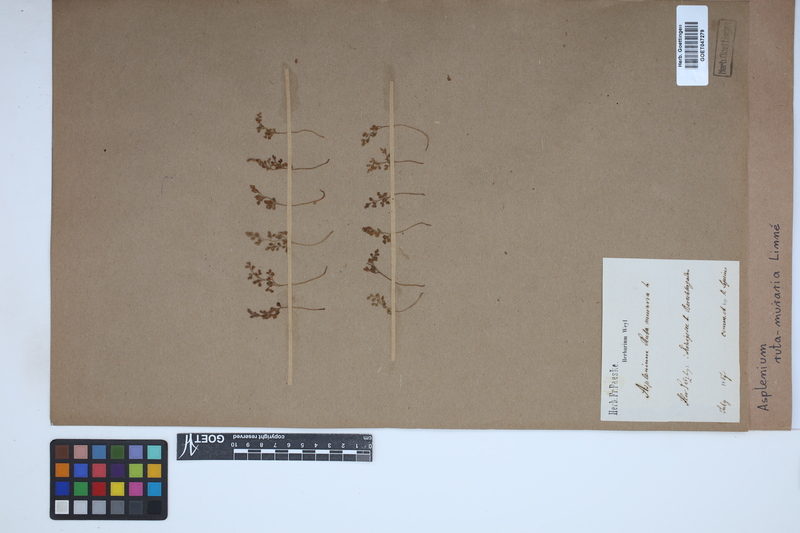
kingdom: Plantae
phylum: Tracheophyta
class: Polypodiopsida
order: Polypodiales
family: Aspleniaceae
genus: Asplenium
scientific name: Asplenium ruta-muraria
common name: Wall-rue
